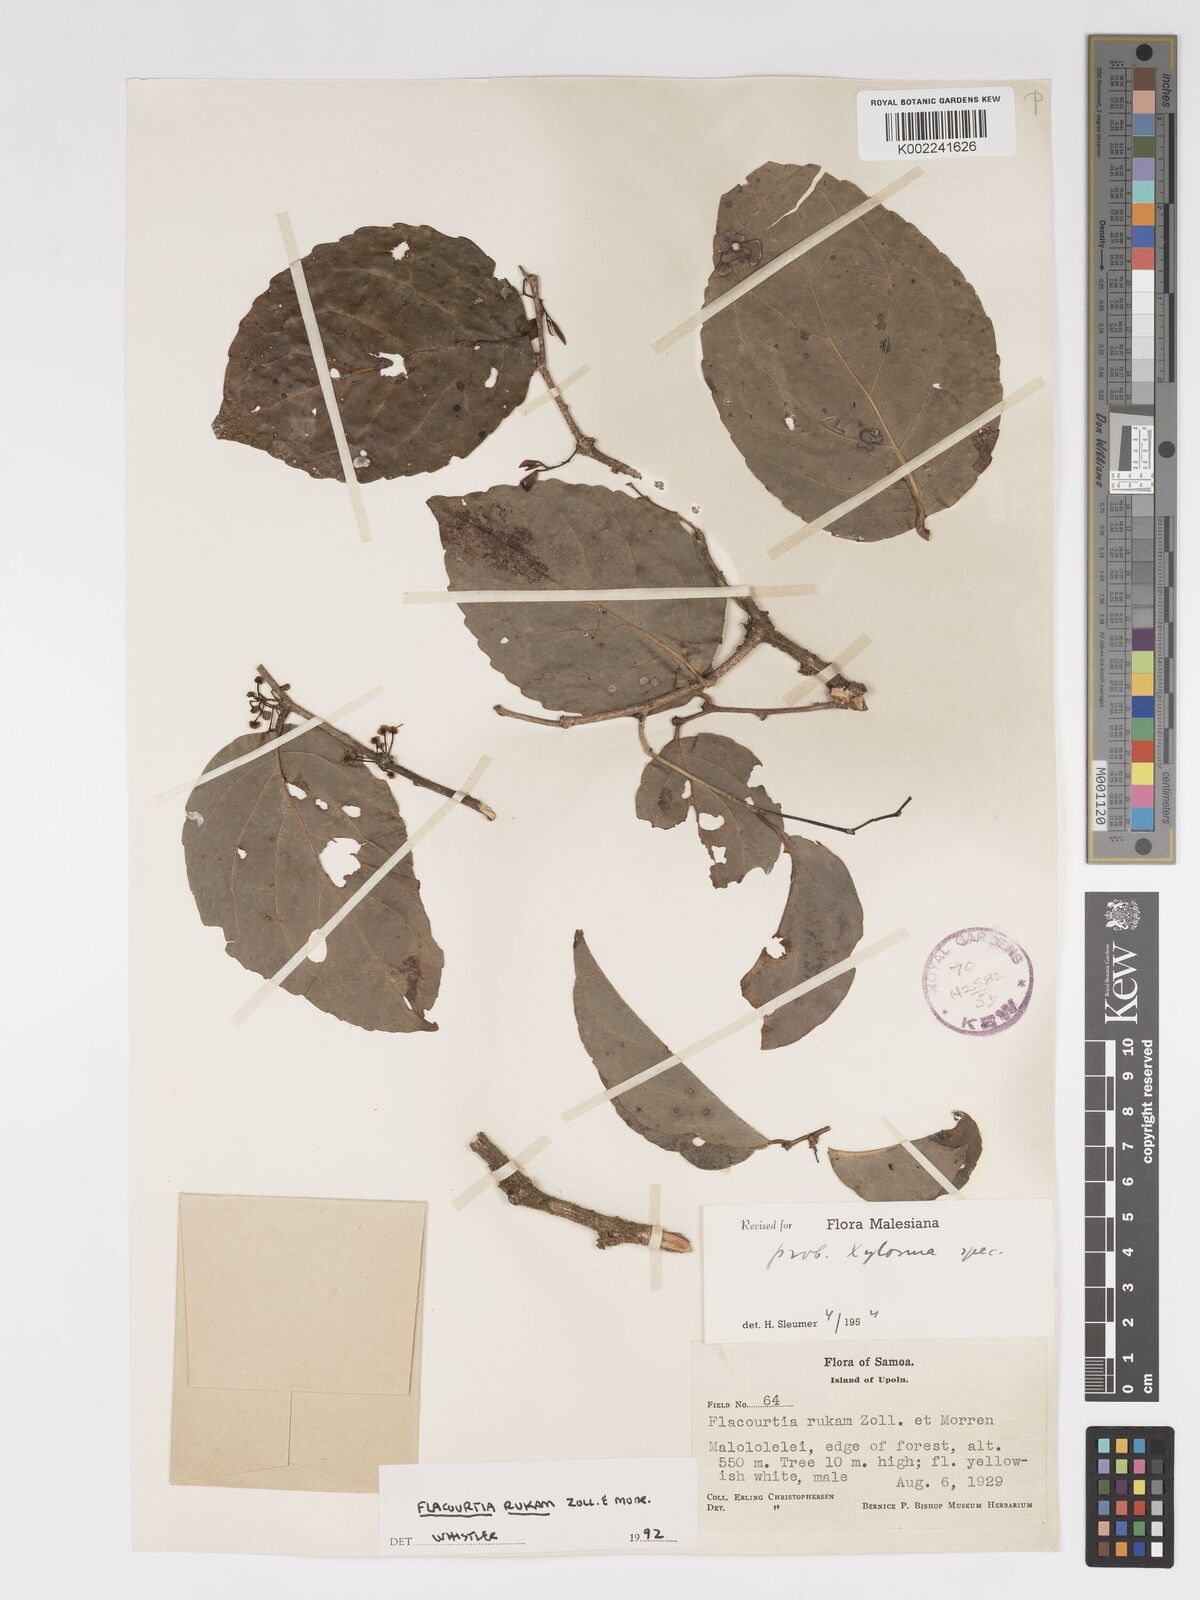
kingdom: Plantae
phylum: Tracheophyta
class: Magnoliopsida
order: Malpighiales
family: Salicaceae
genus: Flacourtia
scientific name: Flacourtia rukam
